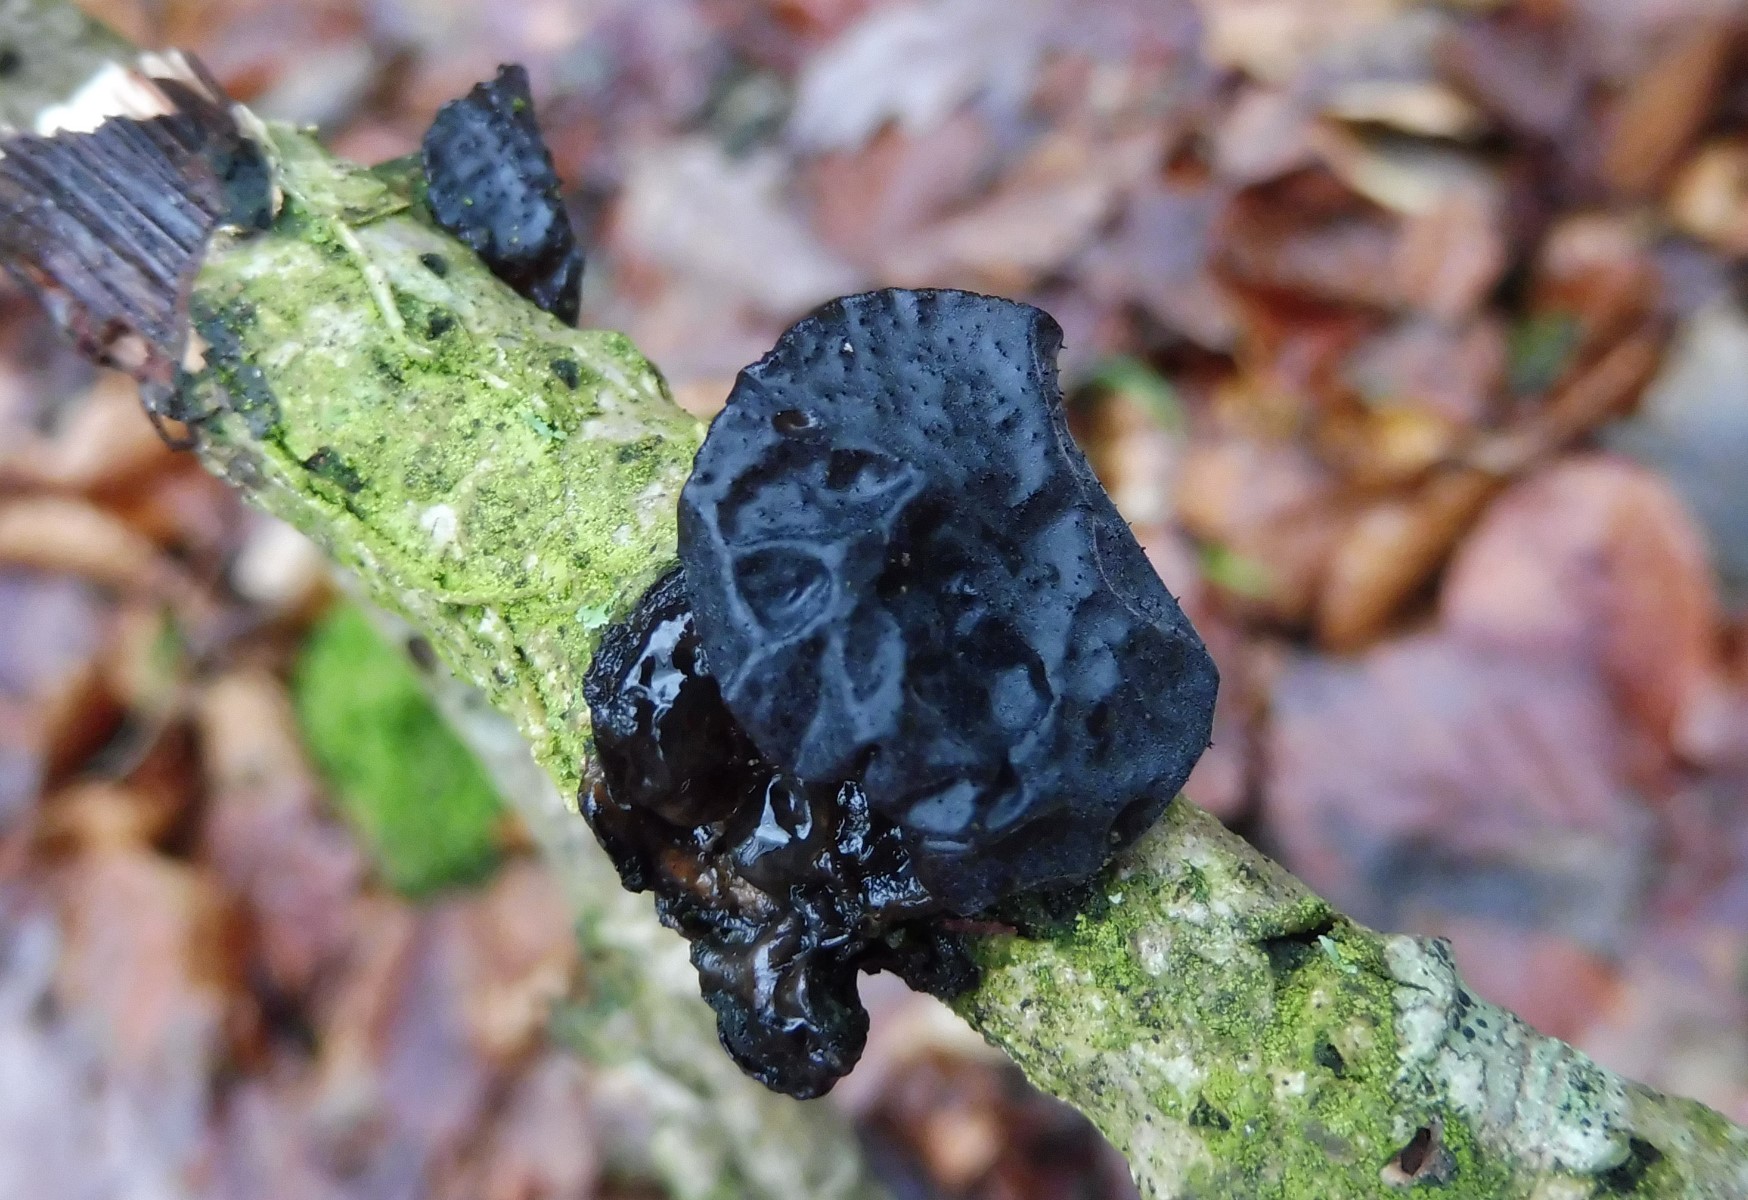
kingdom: Fungi
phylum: Basidiomycota
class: Agaricomycetes
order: Auriculariales
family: Auriculariaceae
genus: Exidia
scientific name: Exidia glandulosa
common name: ege-bævretop
